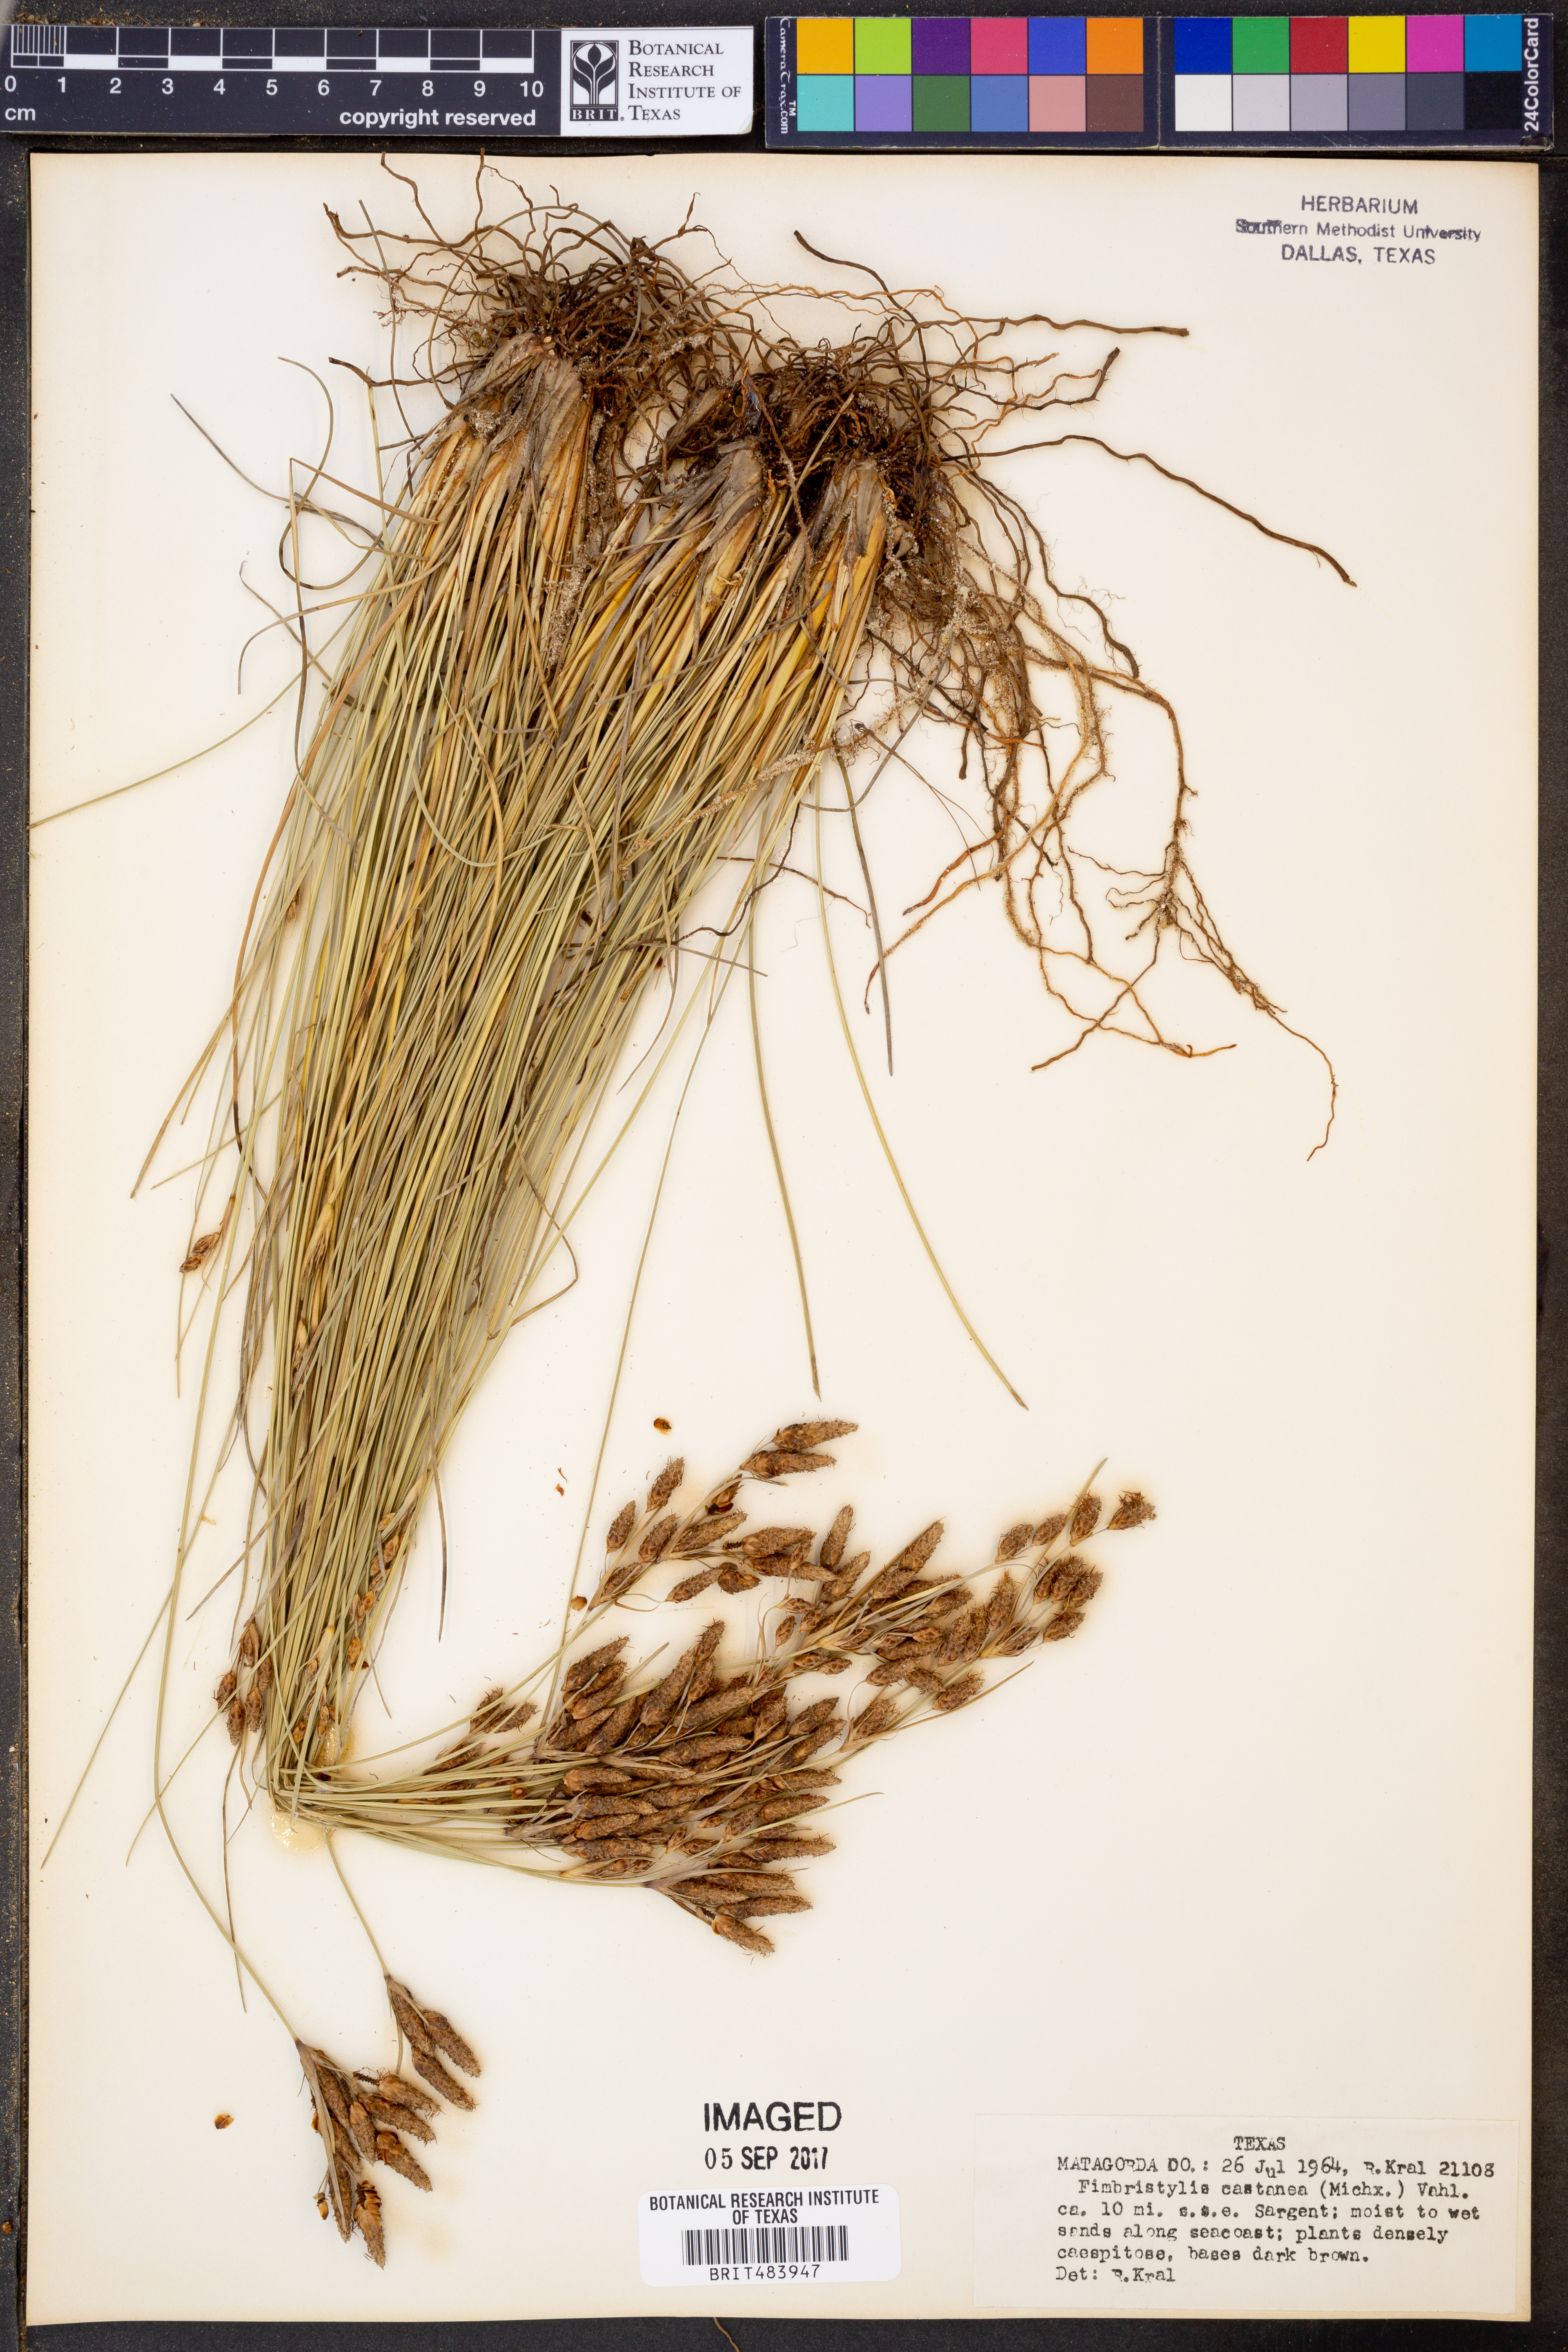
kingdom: Plantae
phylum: Tracheophyta
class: Liliopsida
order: Poales
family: Cyperaceae
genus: Fimbristylis
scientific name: Fimbristylis spadicea
